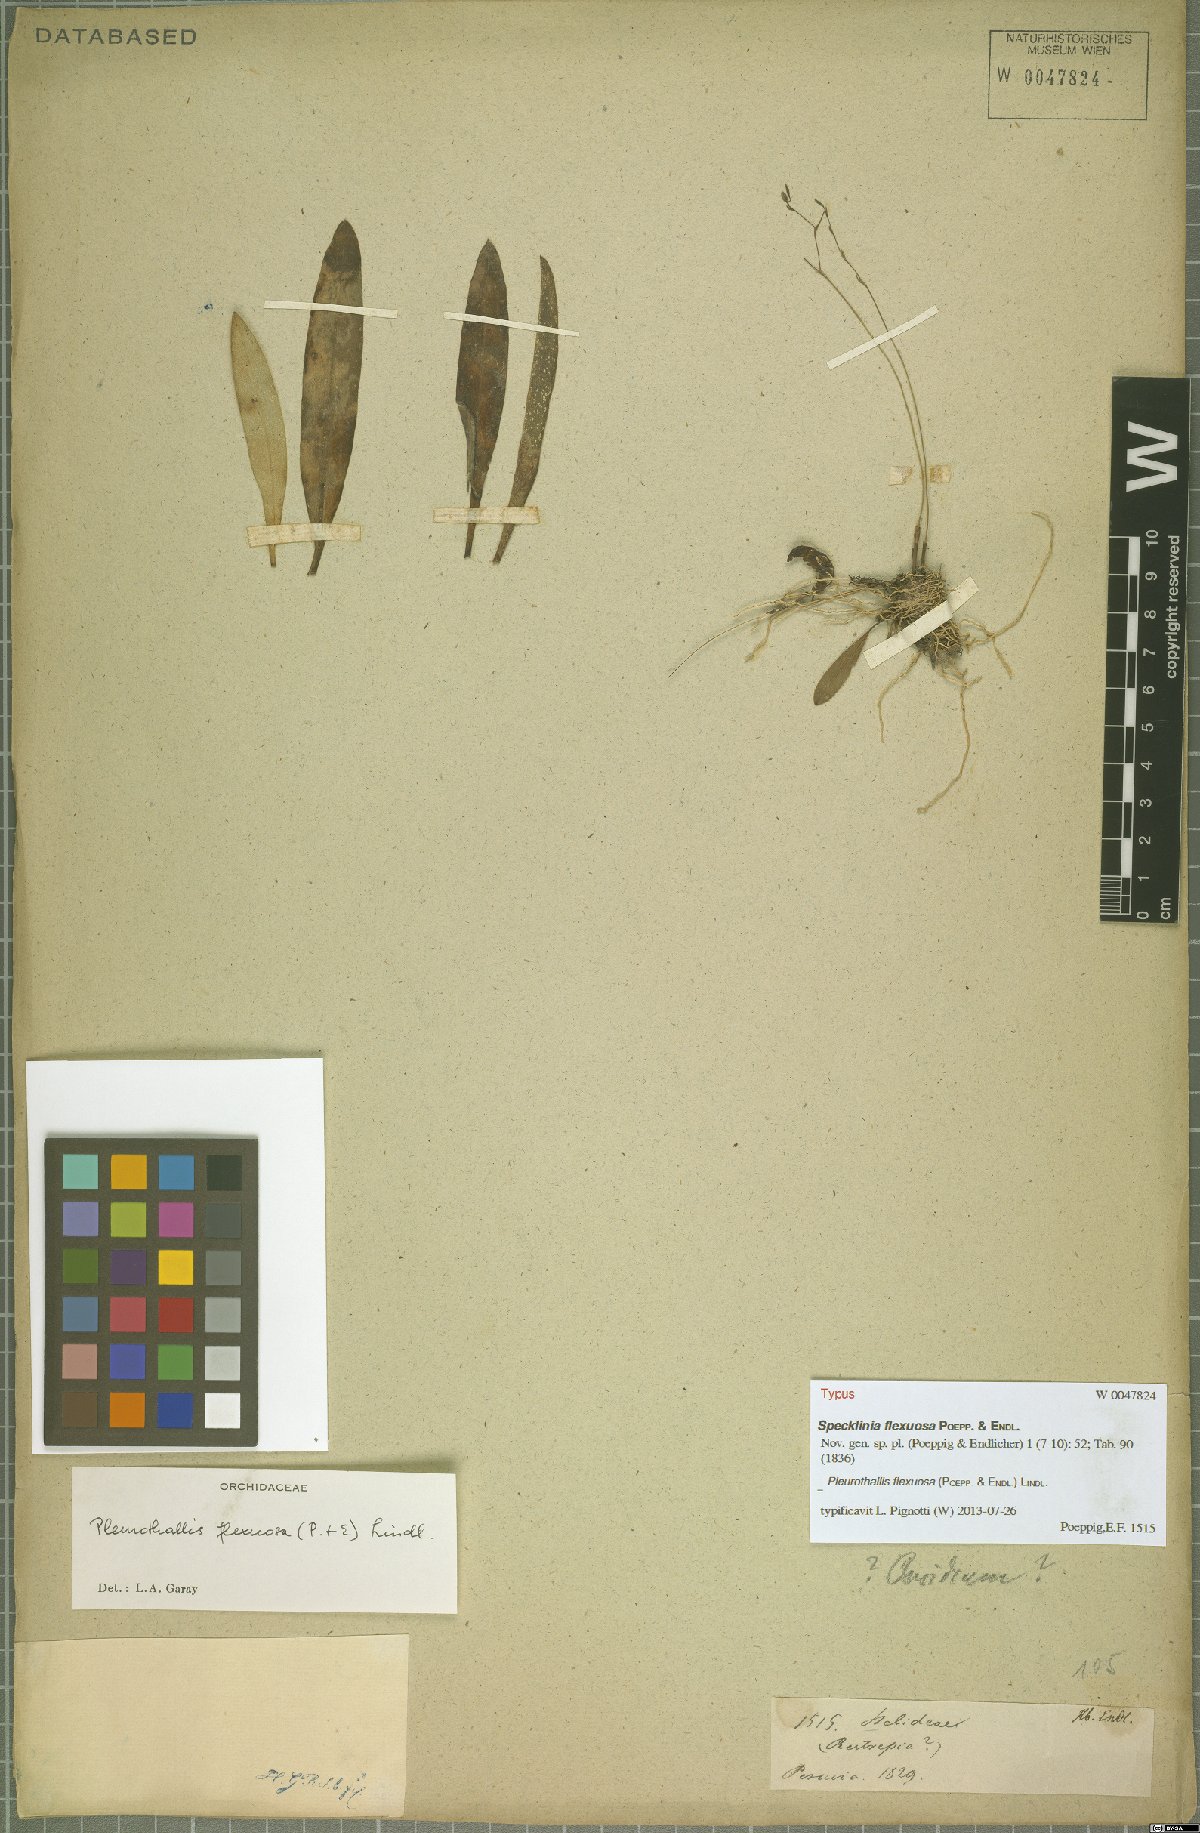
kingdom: Plantae
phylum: Tracheophyta
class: Liliopsida
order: Asparagales
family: Orchidaceae
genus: Stelis
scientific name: Stelis kefersteiniana
